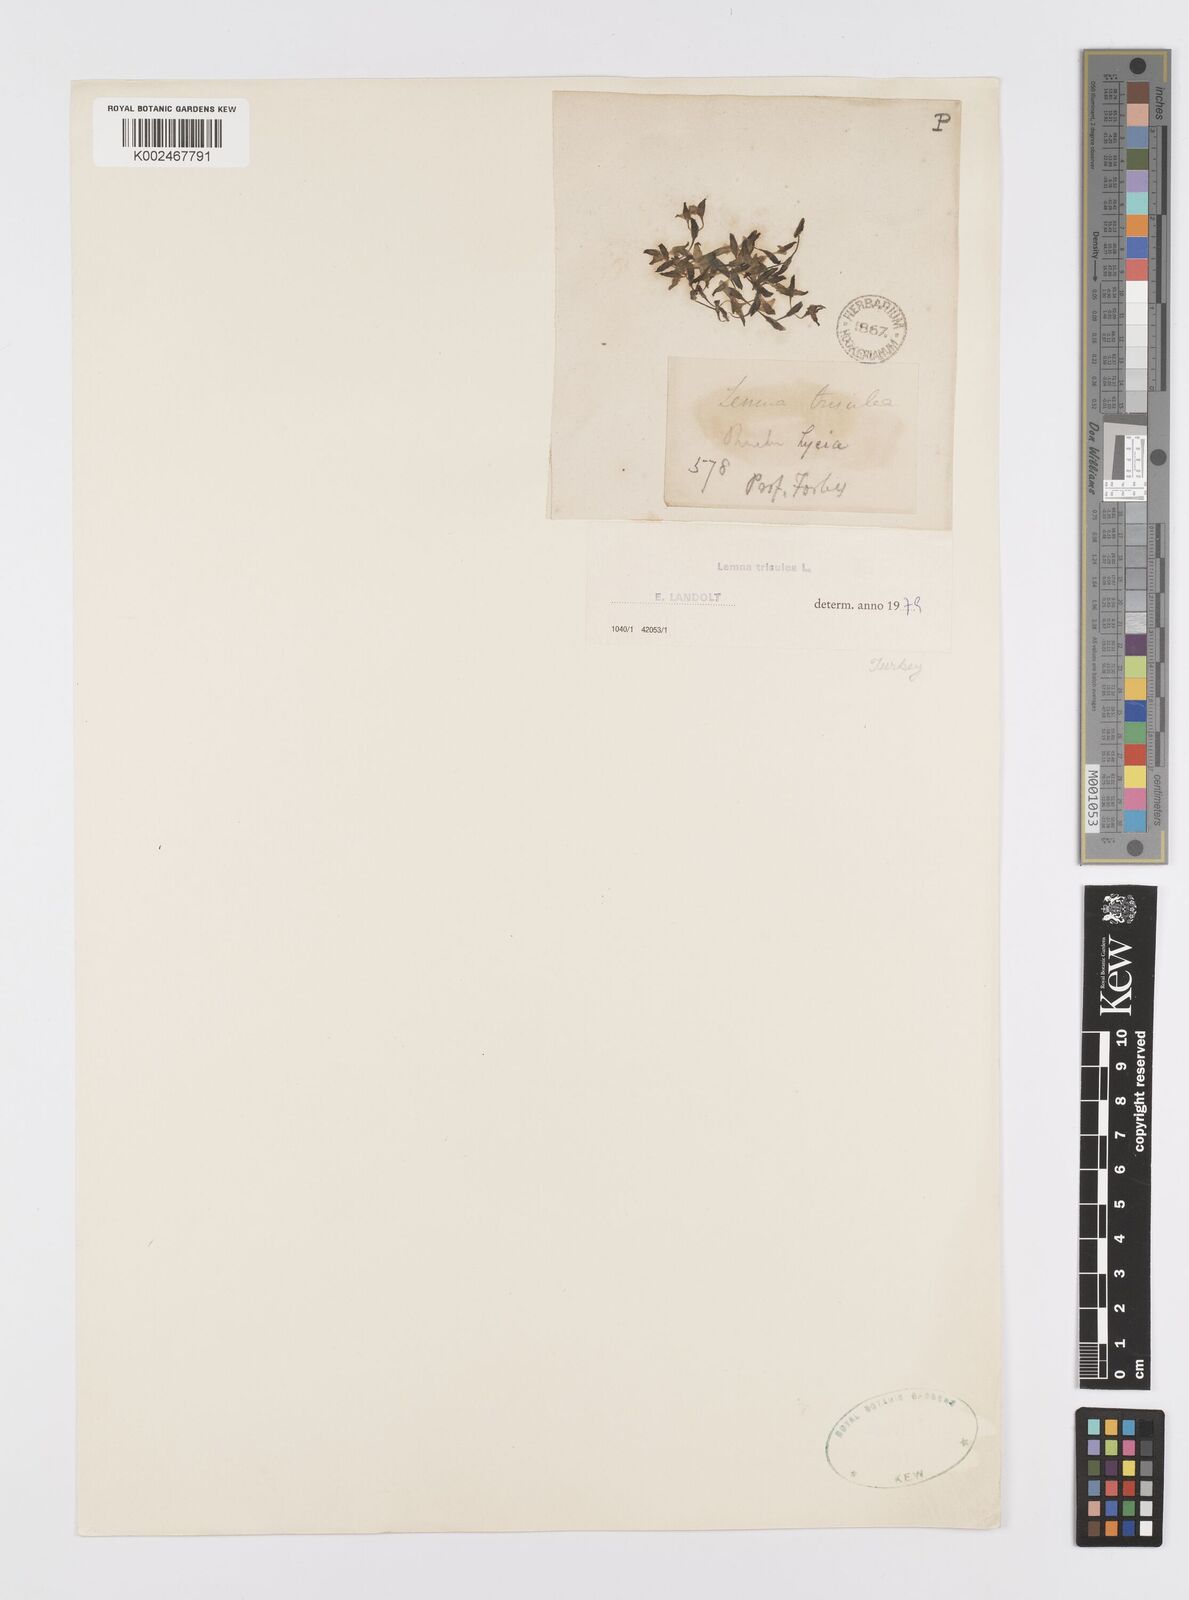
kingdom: Plantae
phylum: Tracheophyta
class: Liliopsida
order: Alismatales
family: Araceae
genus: Lemna
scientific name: Lemna trisulca
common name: Ivy-leaved duckweed
